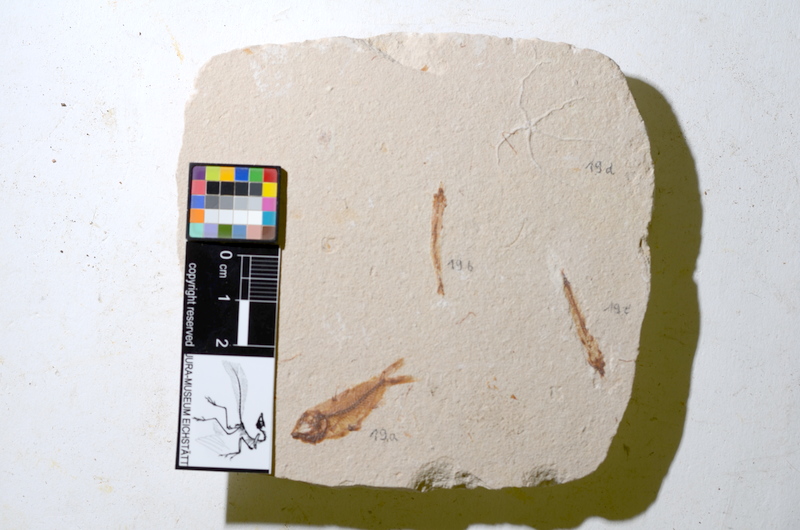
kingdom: Animalia
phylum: Chordata
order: Stomiiformes
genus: Telepholis
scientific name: Telepholis
